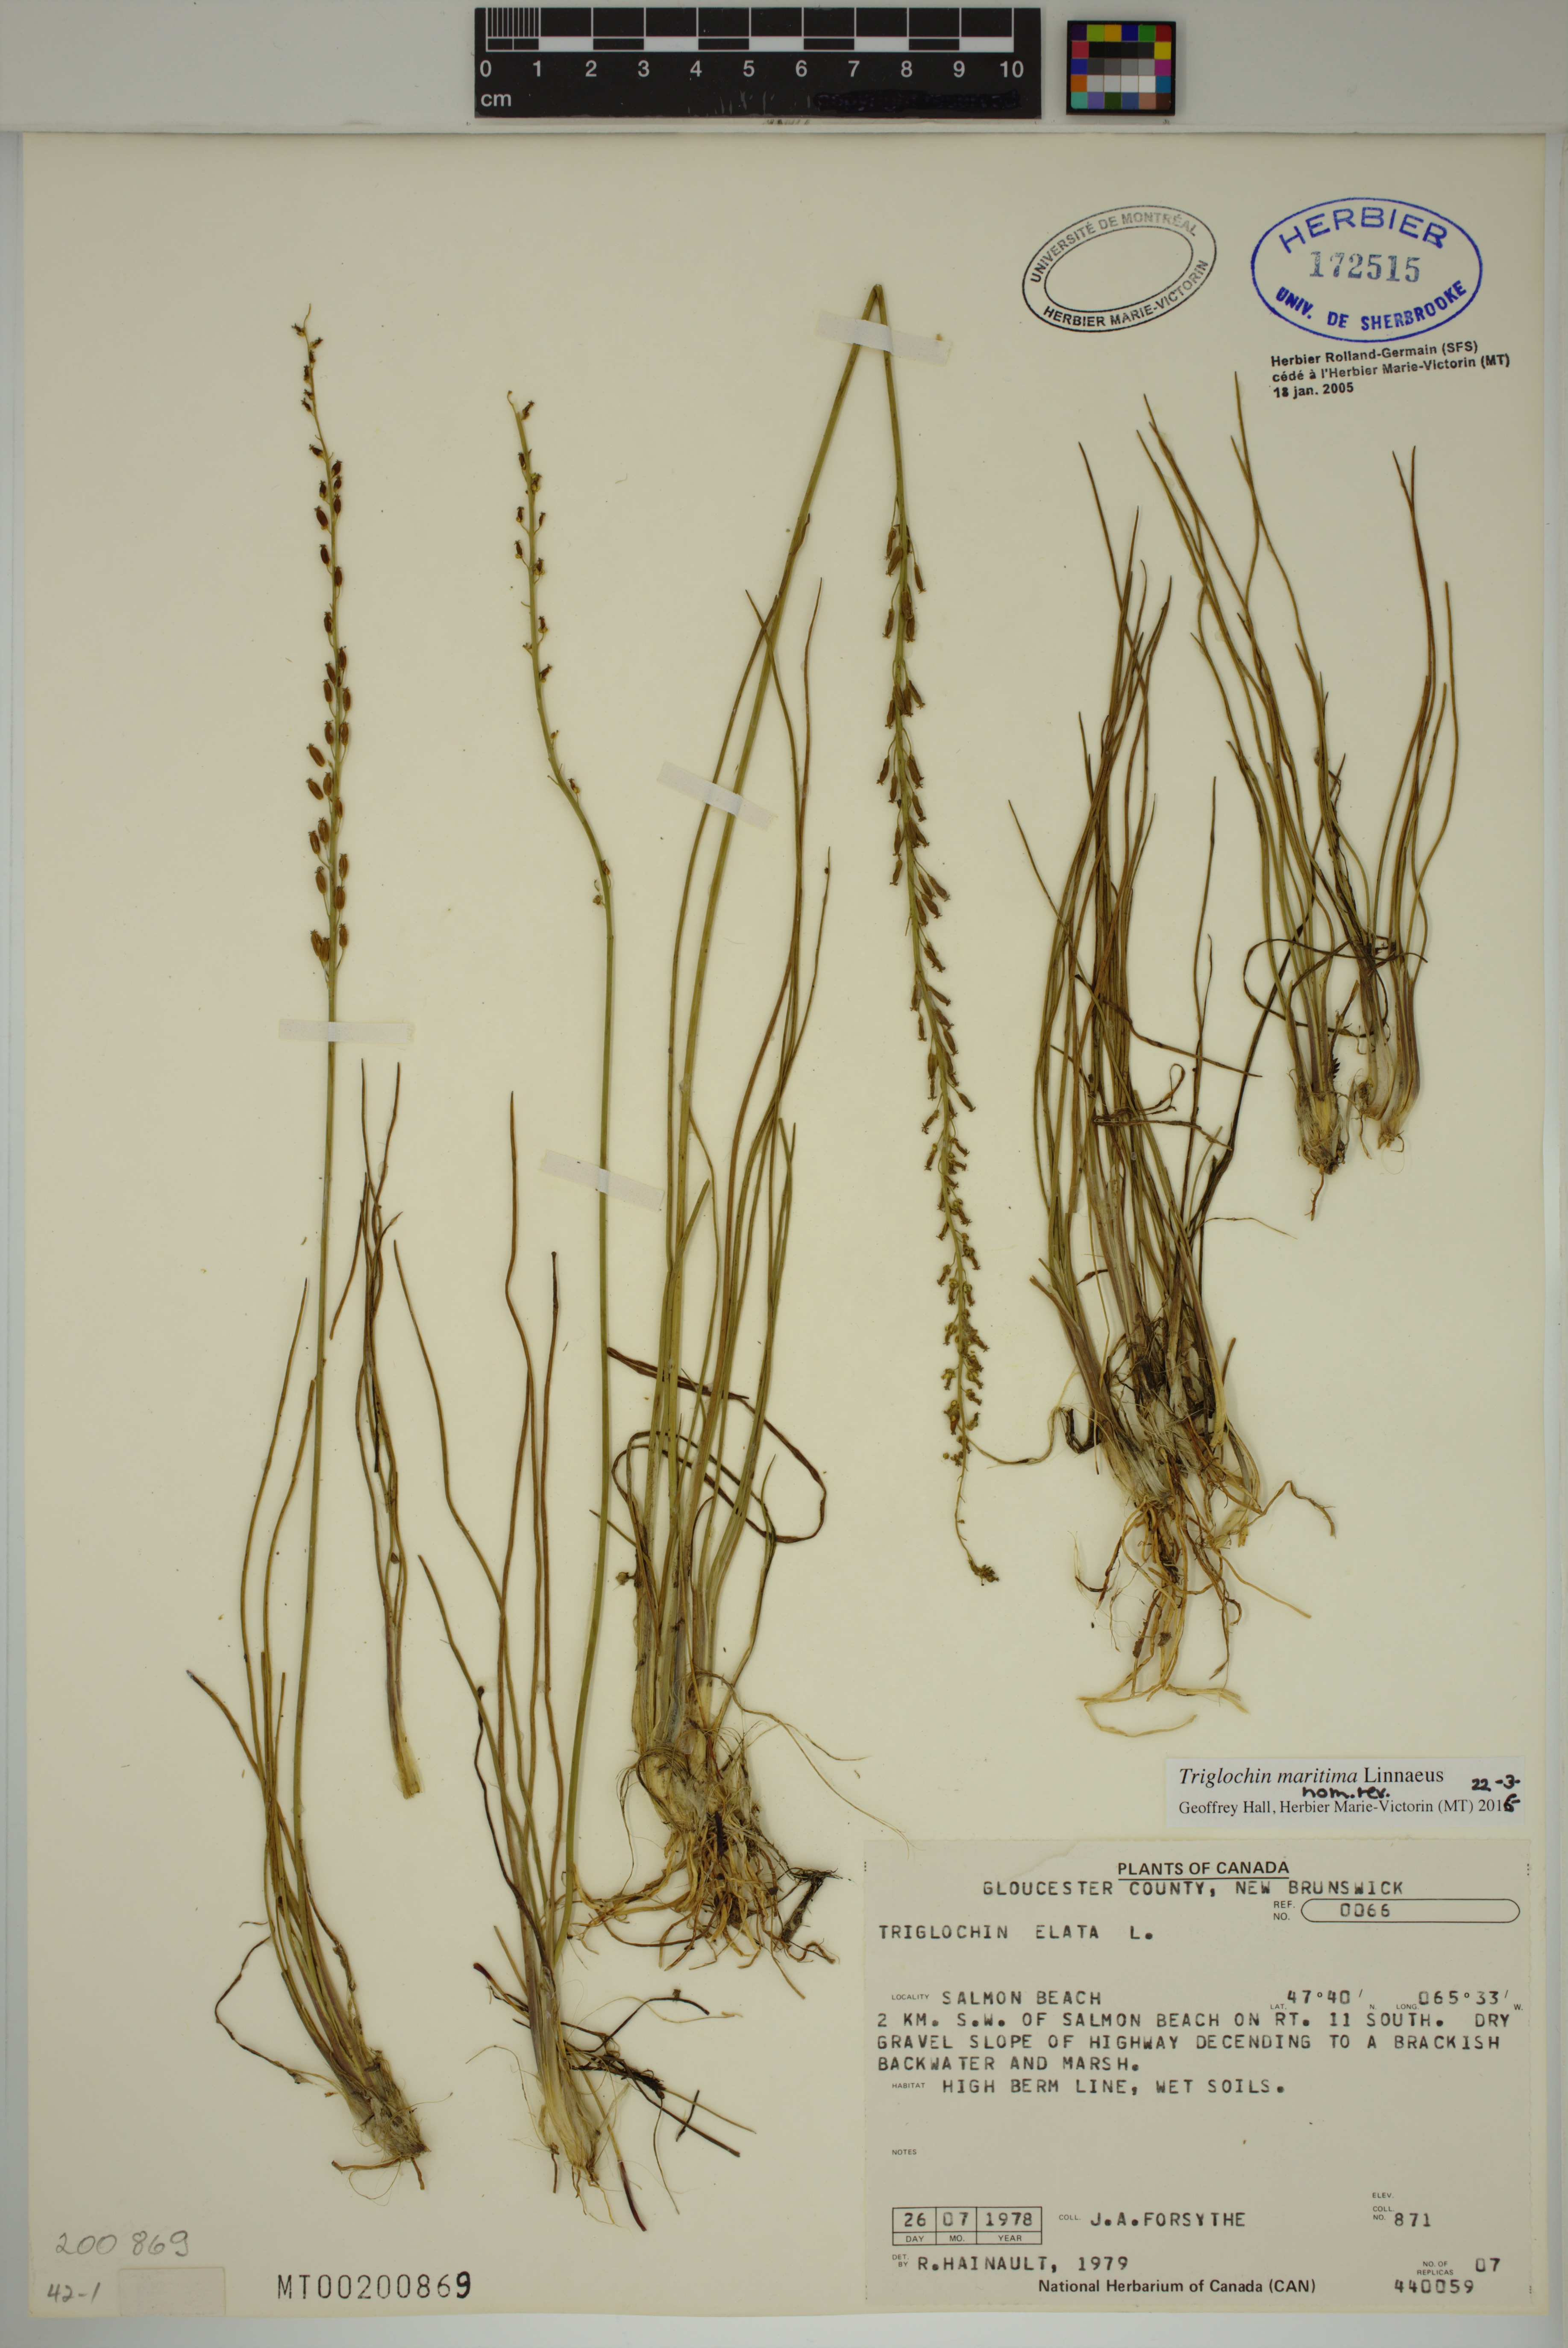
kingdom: Plantae
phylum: Tracheophyta
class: Liliopsida
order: Alismatales
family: Juncaginaceae
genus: Triglochin
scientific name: Triglochin maritima
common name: Sea arrowgrass
